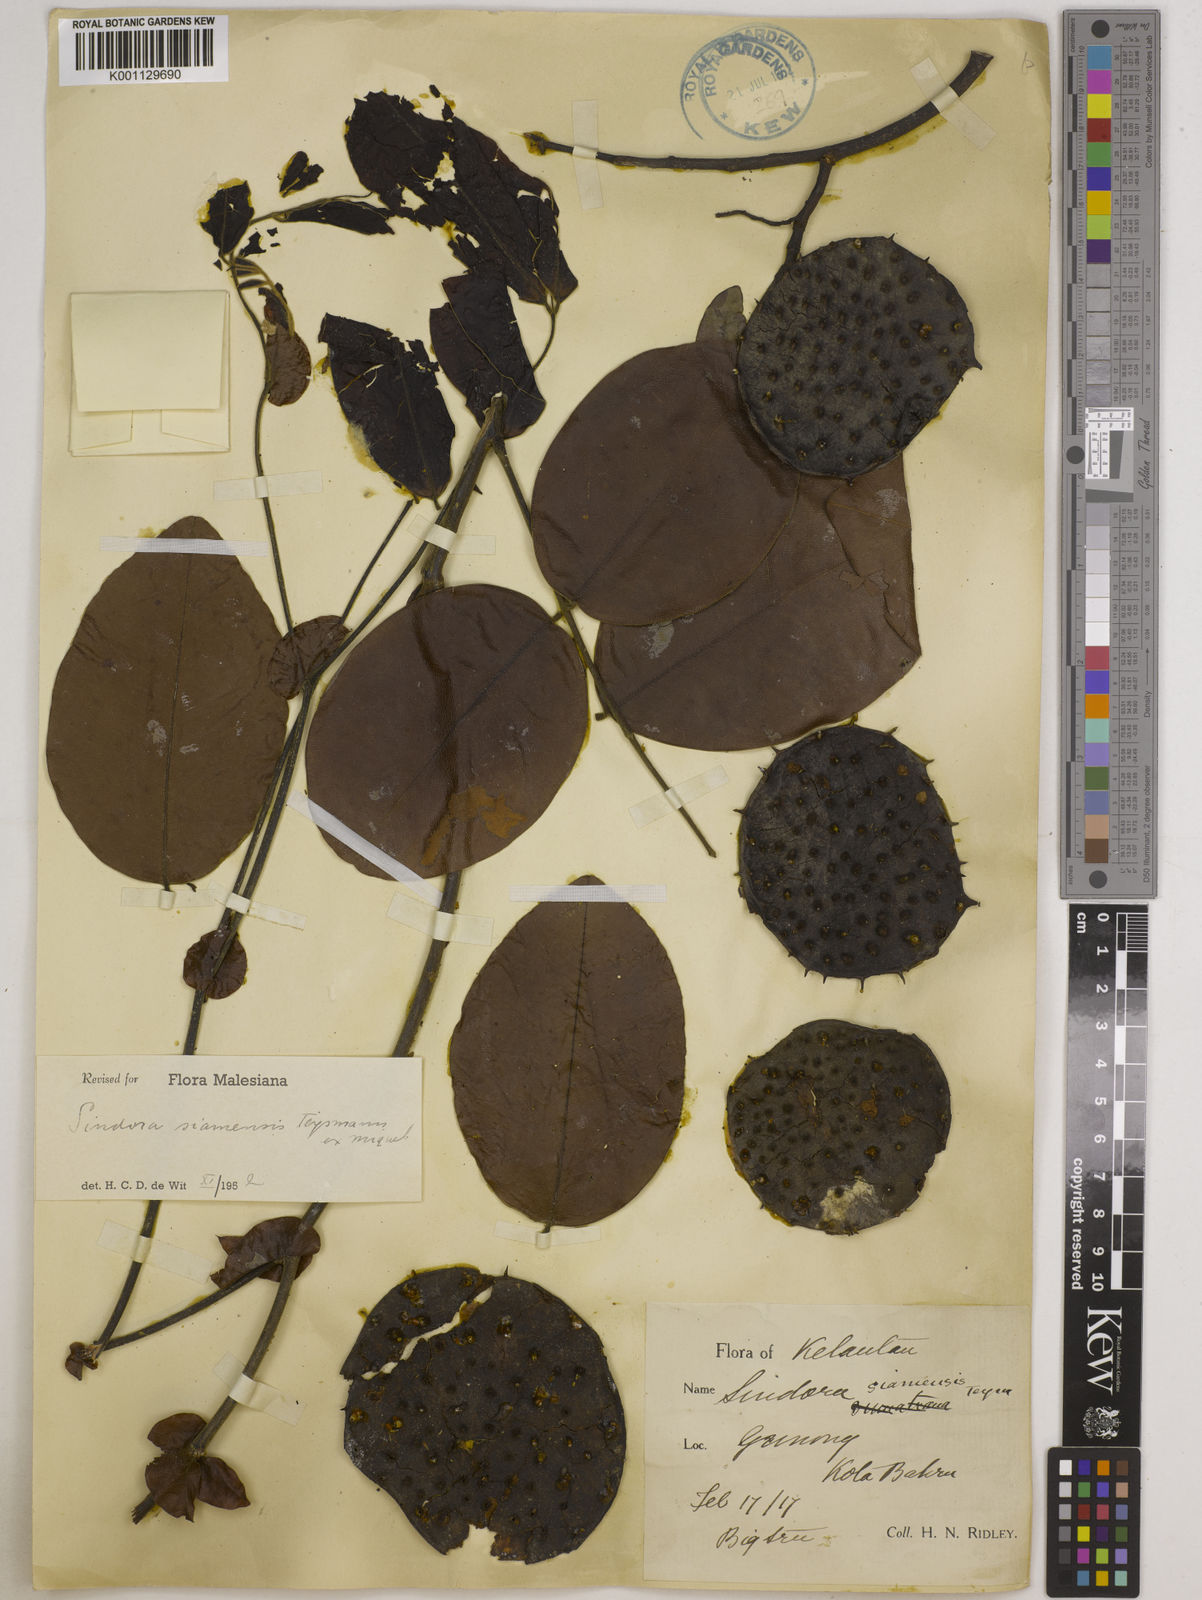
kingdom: Plantae
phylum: Tracheophyta
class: Magnoliopsida
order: Fabales
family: Fabaceae
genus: Sindora
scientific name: Sindora siamensis
